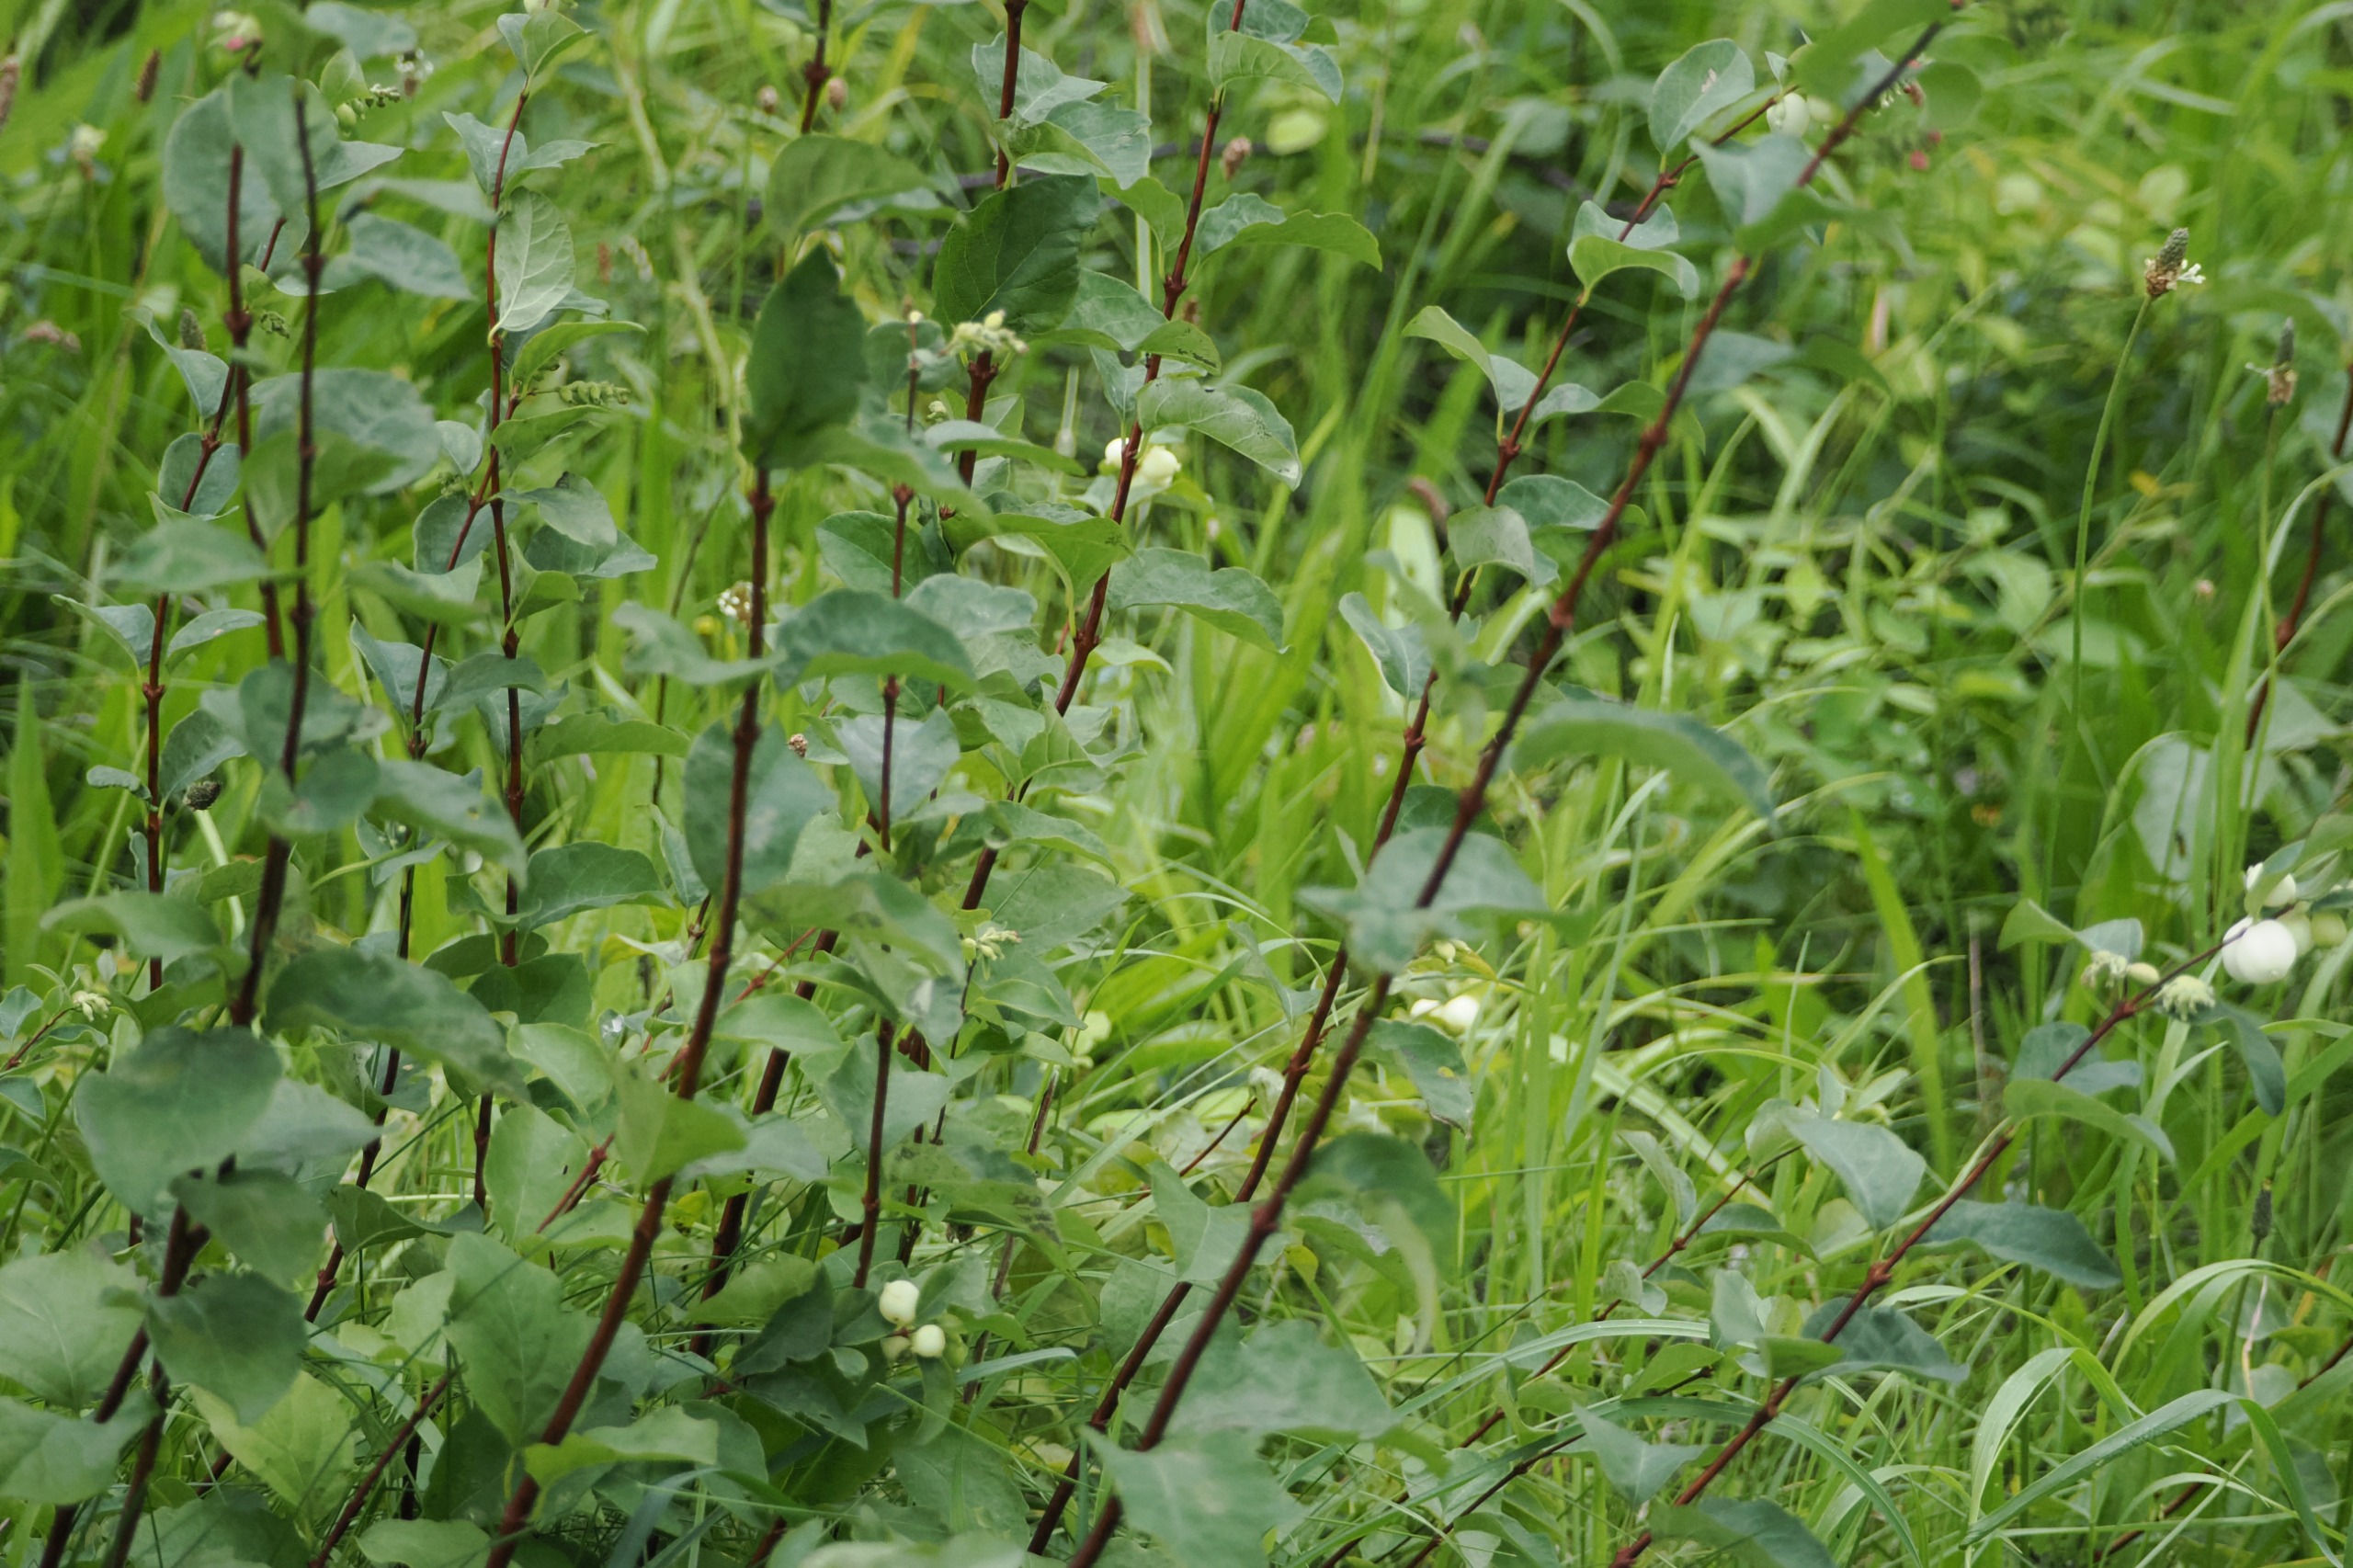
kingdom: Plantae
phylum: Tracheophyta
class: Magnoliopsida
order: Dipsacales
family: Caprifoliaceae
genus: Symphoricarpos
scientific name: Symphoricarpos albus
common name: Almindelig snebær
